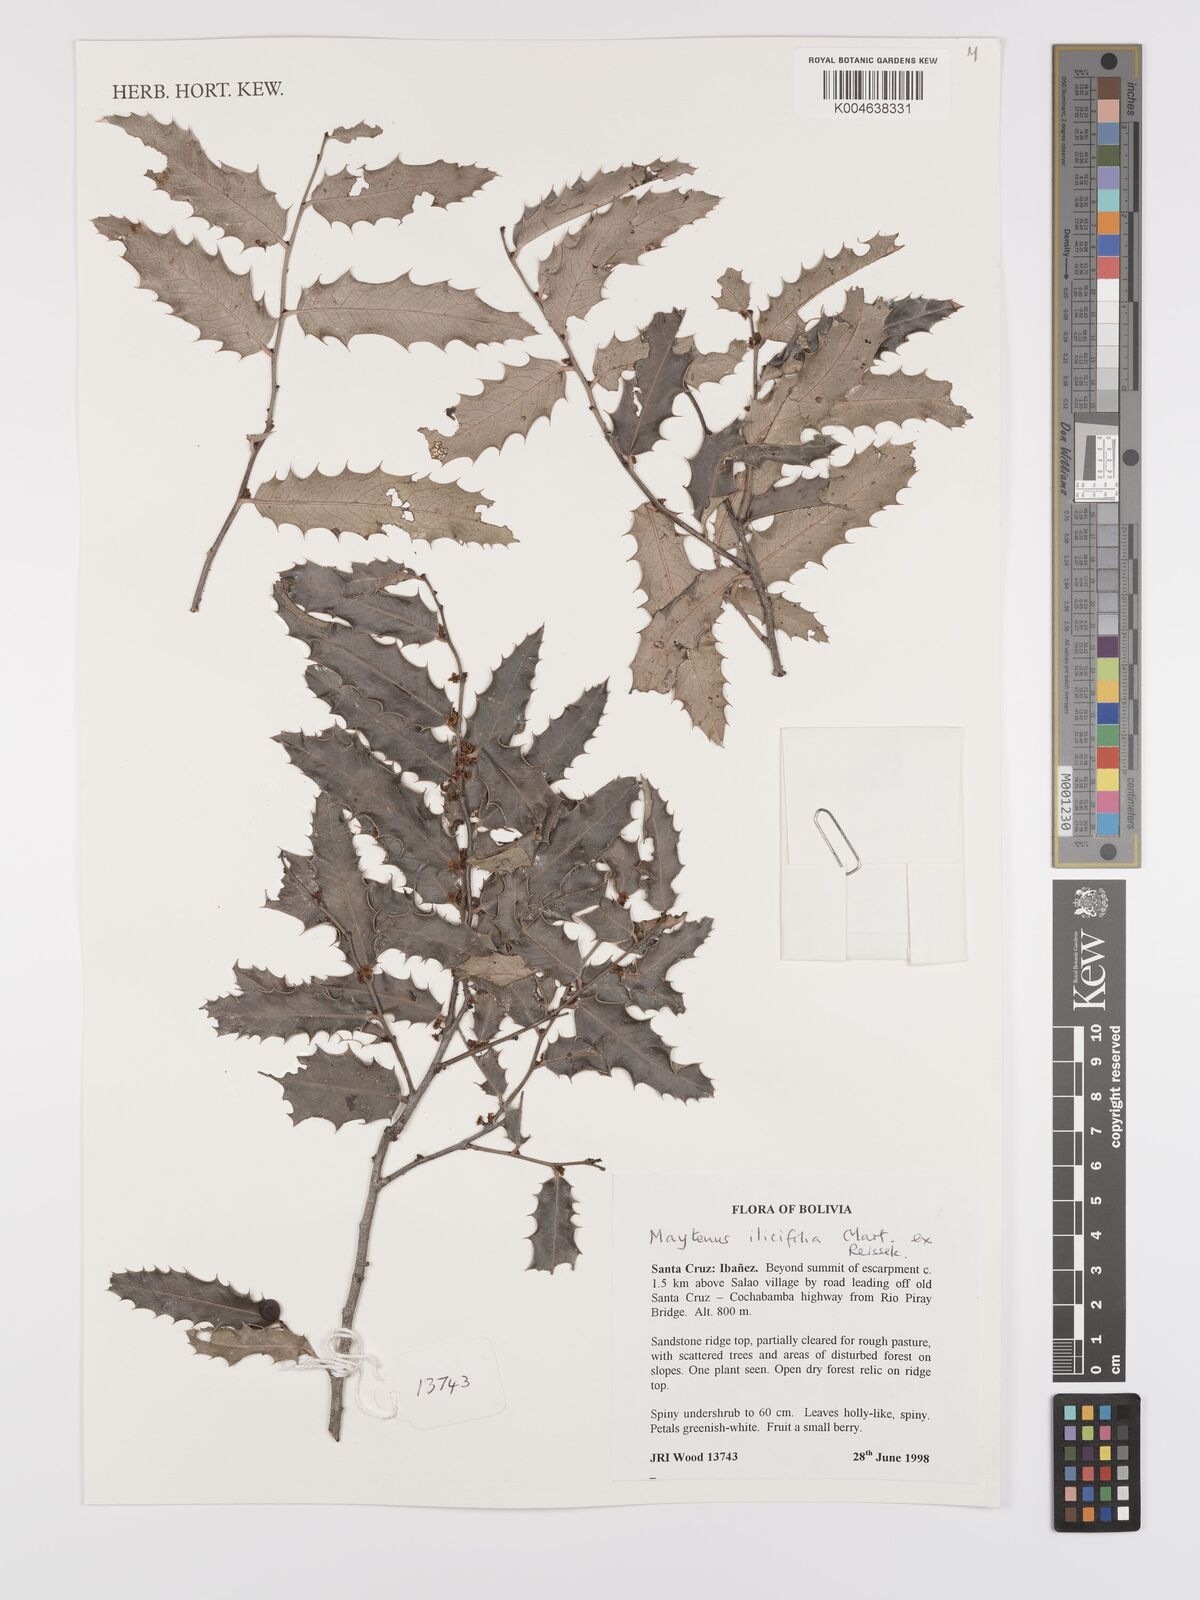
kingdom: Plantae
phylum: Tracheophyta
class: Magnoliopsida
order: Celastrales
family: Celastraceae
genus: Maytenus
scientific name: Maytenus
